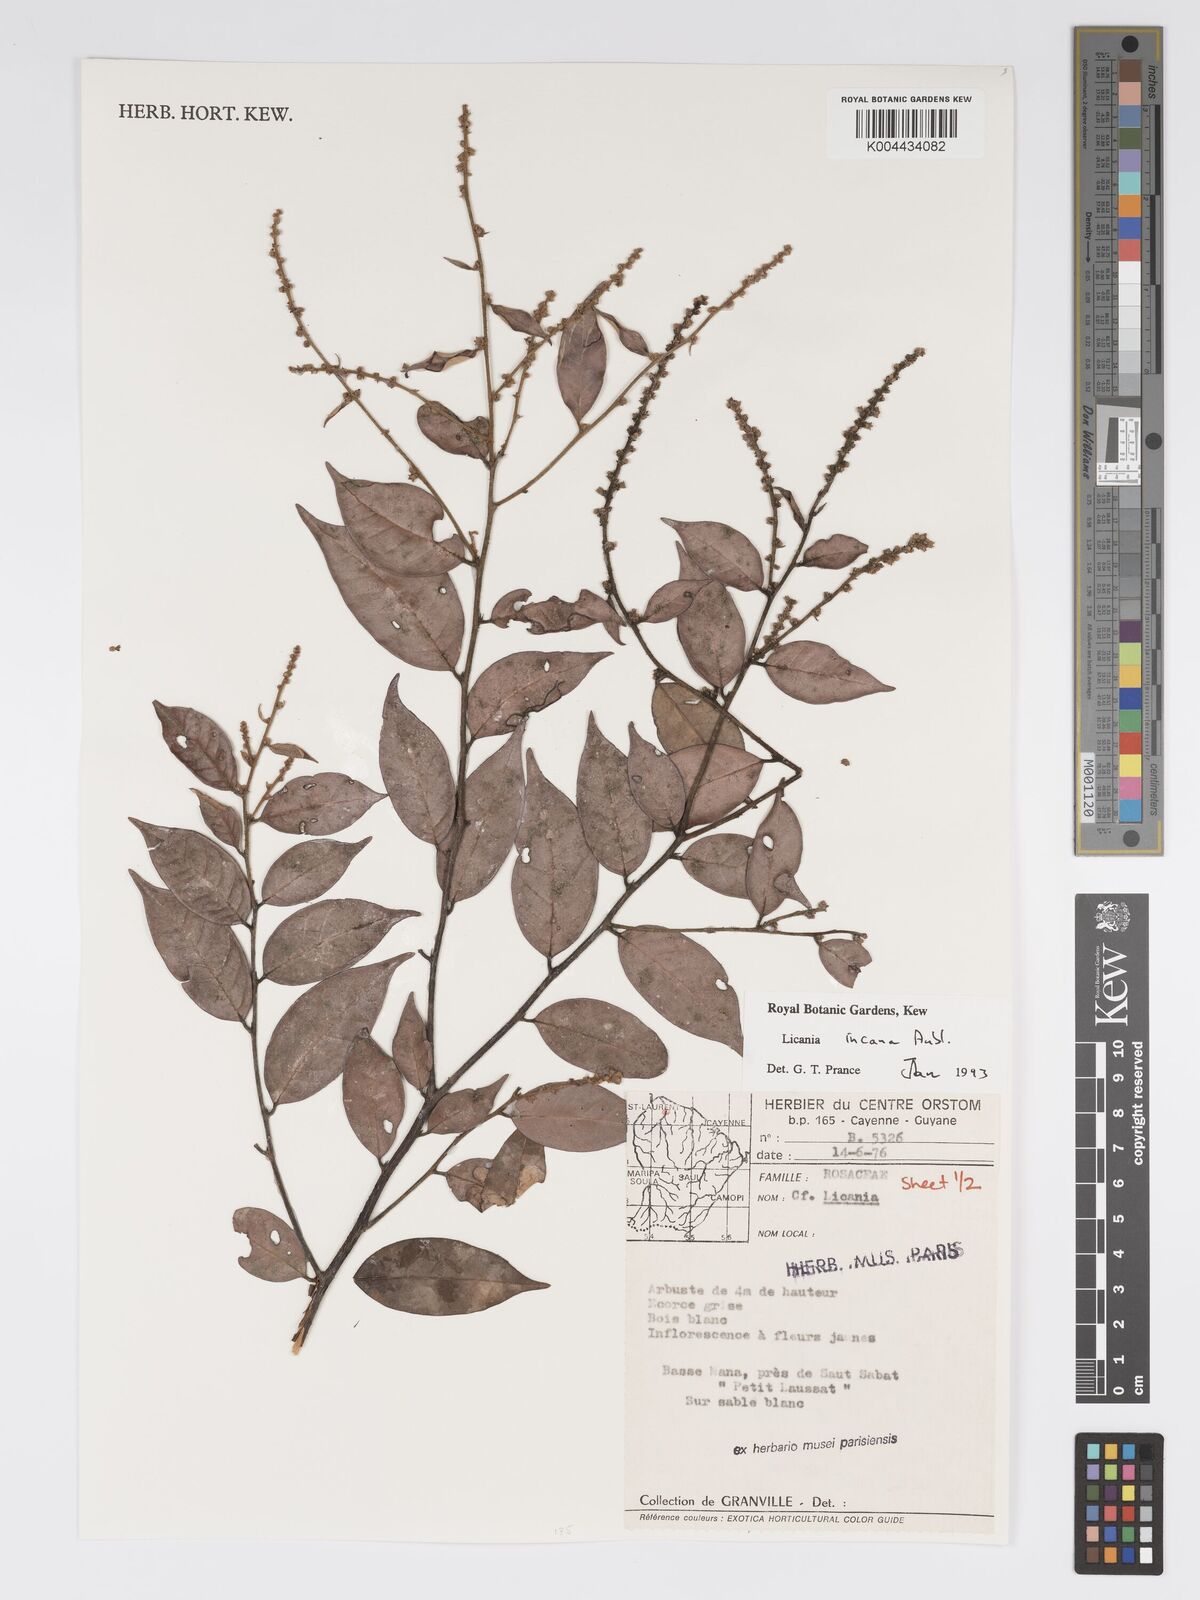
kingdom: Plantae
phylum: Tracheophyta
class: Magnoliopsida
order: Malpighiales
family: Chrysobalanaceae
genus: Licania
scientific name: Licania incana
